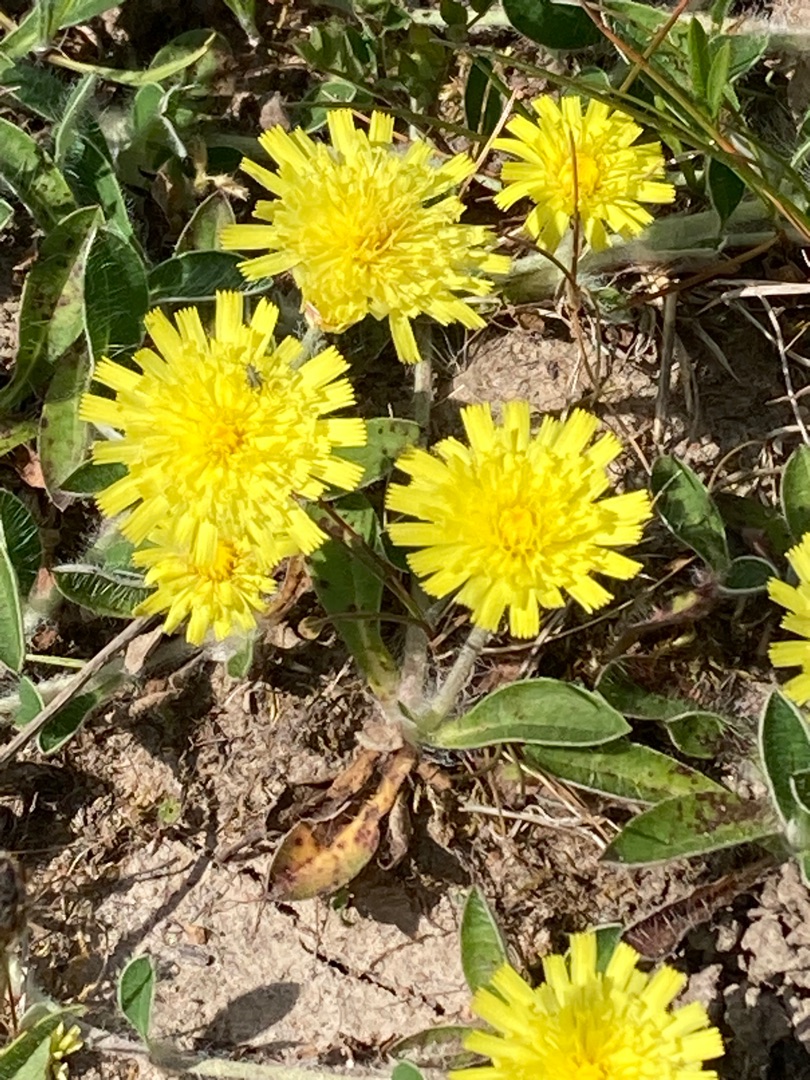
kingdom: Plantae
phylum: Tracheophyta
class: Magnoliopsida
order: Asterales
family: Asteraceae
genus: Pilosella
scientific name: Pilosella officinarum
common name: Håret høgeurt
